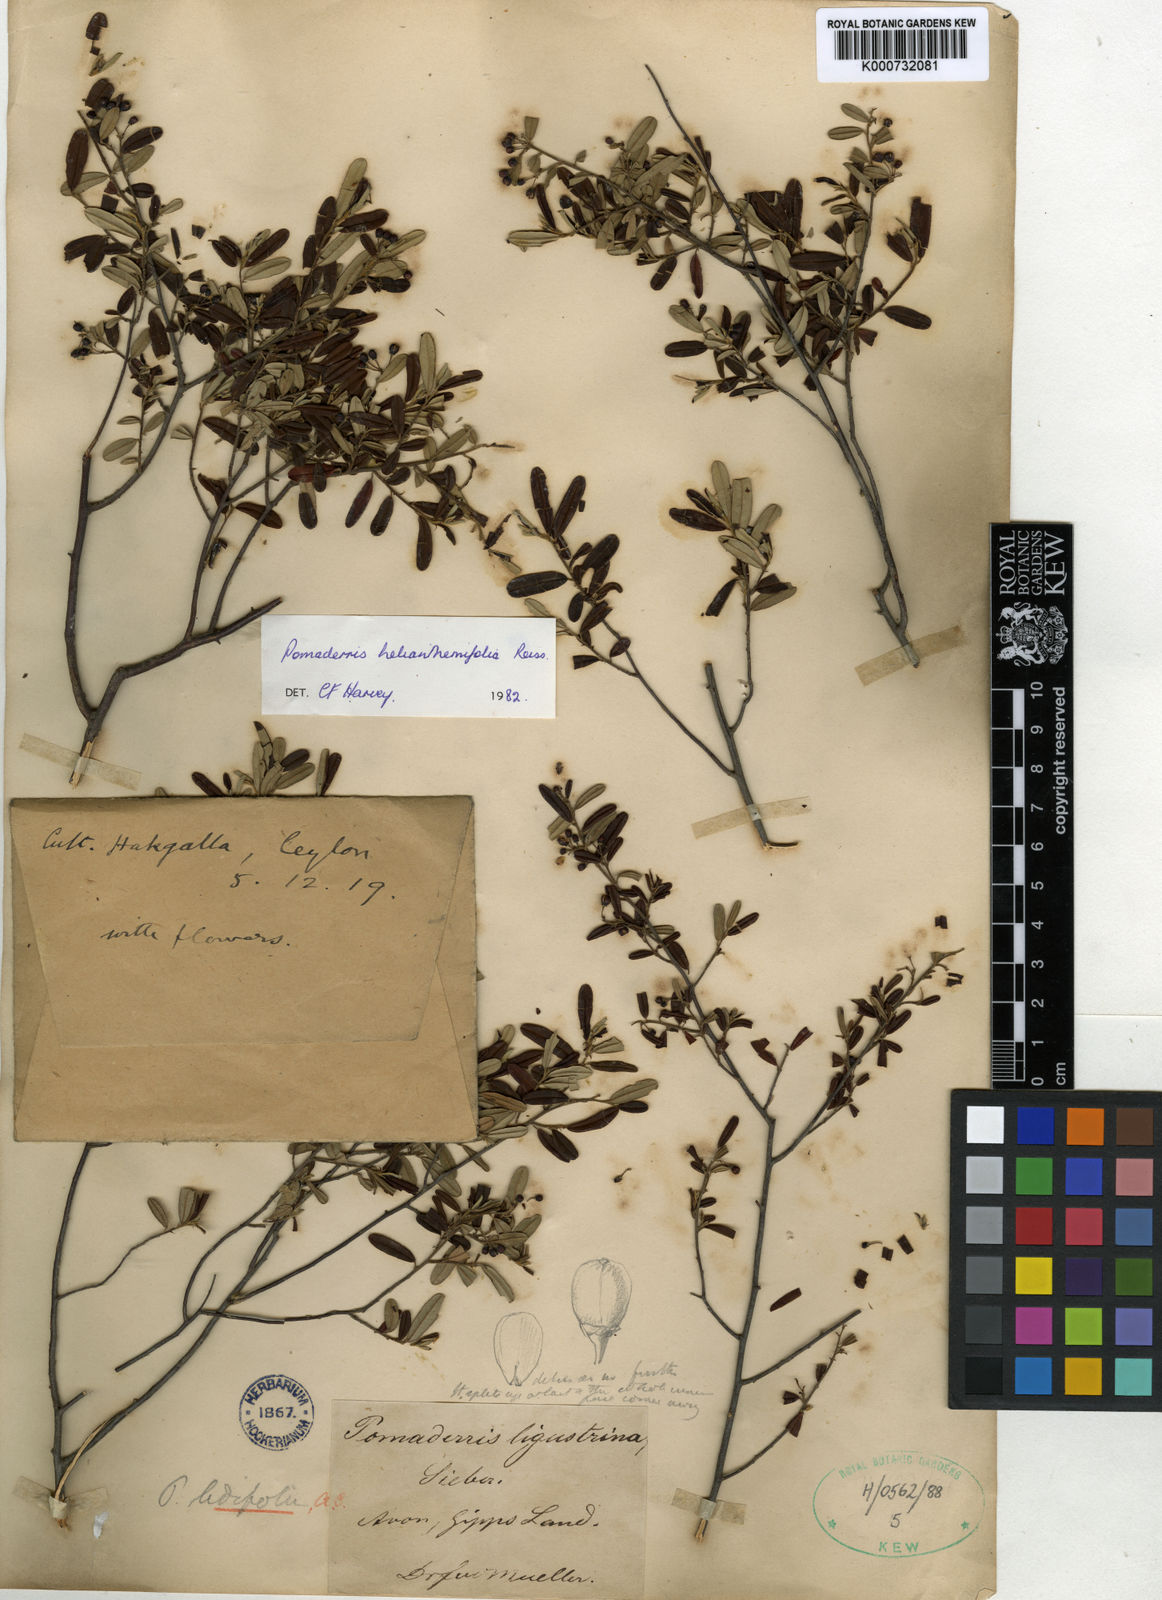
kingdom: Plantae
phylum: Tracheophyta
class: Magnoliopsida
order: Rosales
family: Rhamnaceae
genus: Pomaderris
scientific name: Pomaderris helianthemifolia
